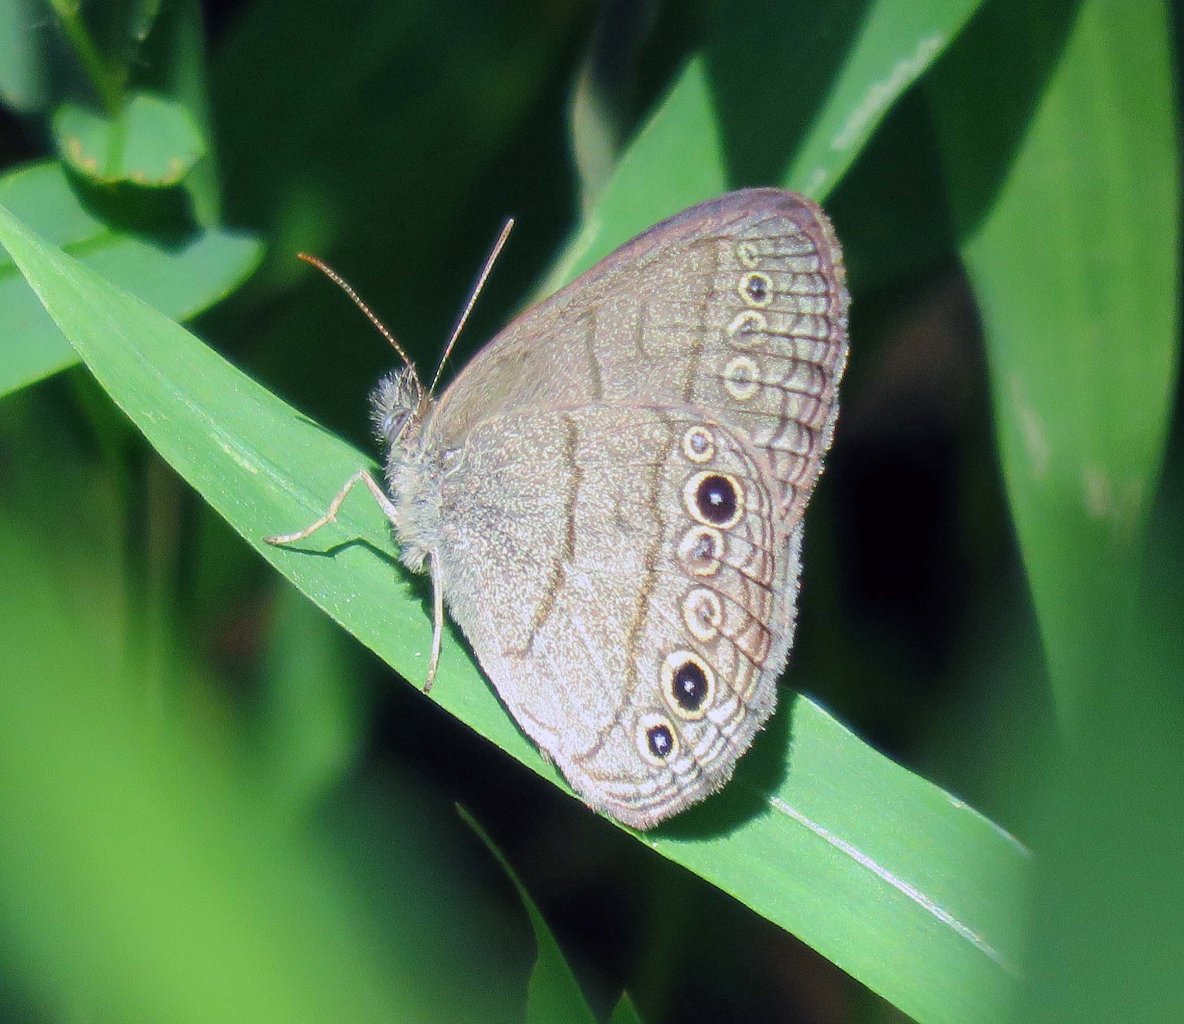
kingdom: Animalia
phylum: Arthropoda
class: Insecta
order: Lepidoptera
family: Nymphalidae
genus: Hermeuptychia
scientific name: Hermeuptychia hermes
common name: Carolina Satyr
